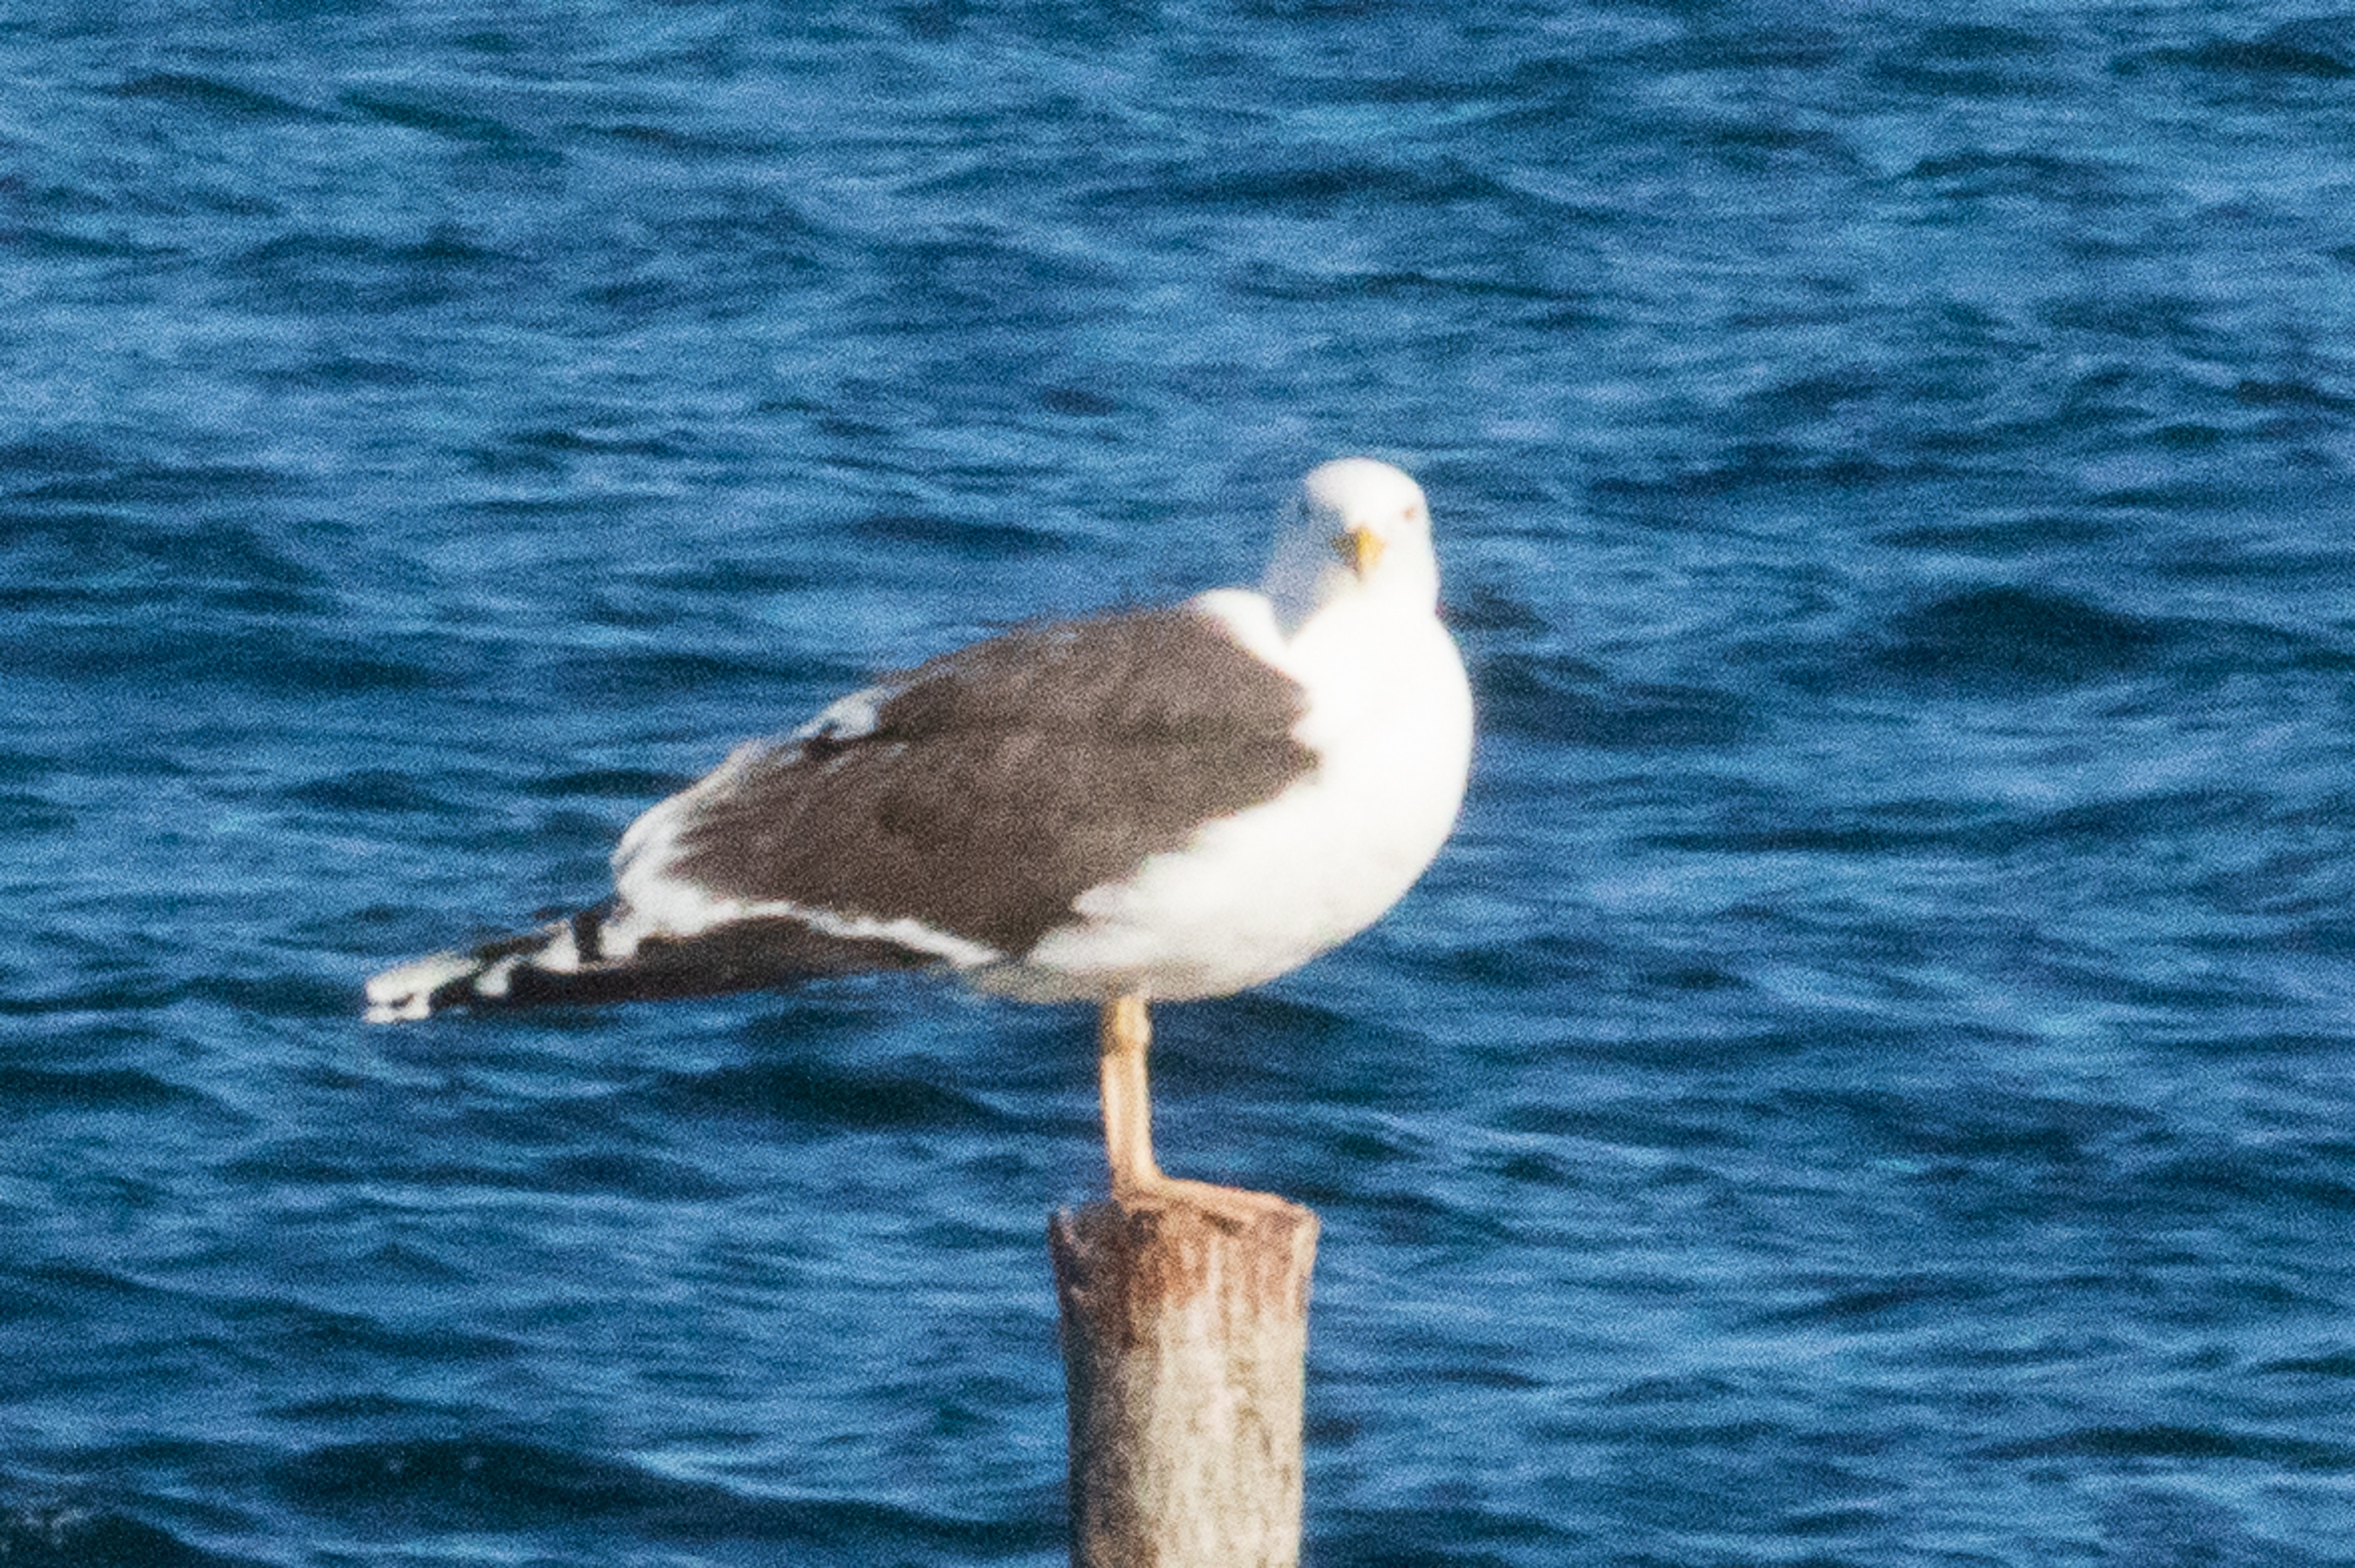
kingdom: Animalia
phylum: Chordata
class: Aves
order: Charadriiformes
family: Laridae
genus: Larus
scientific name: Larus marinus
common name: Svartbag
